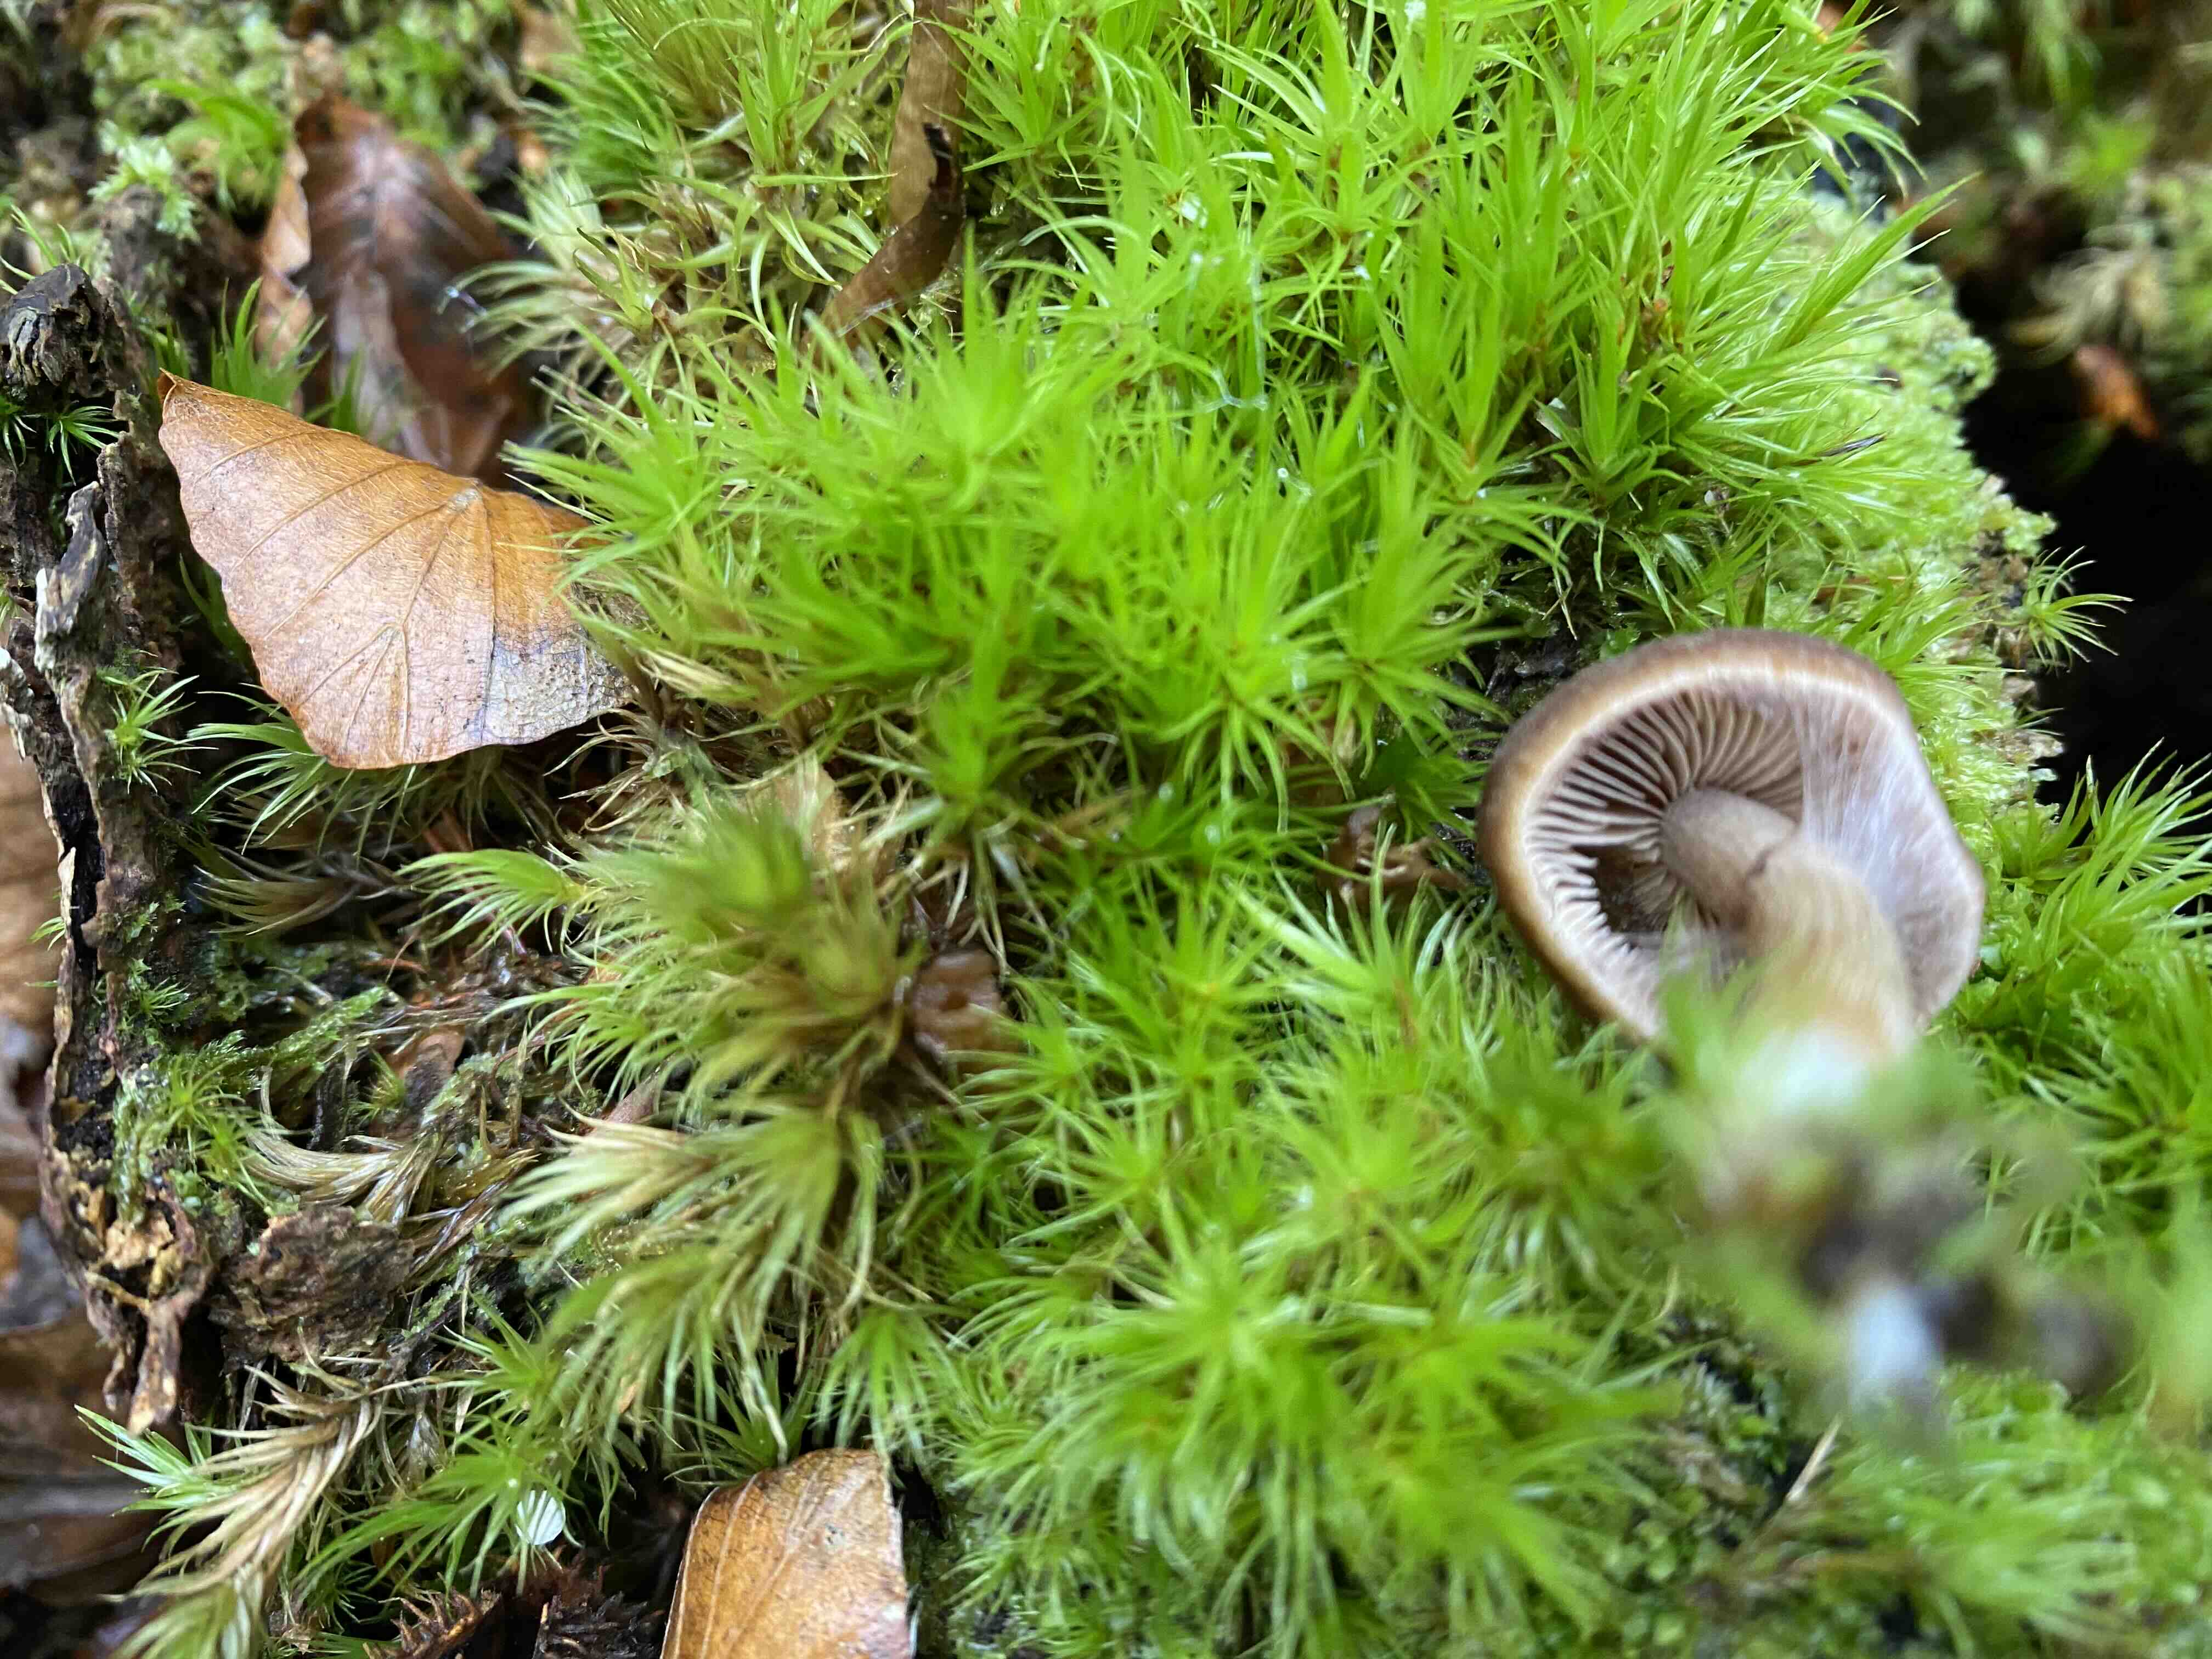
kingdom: Fungi
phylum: Basidiomycota
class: Agaricomycetes
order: Agaricales
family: Psathyrellaceae
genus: Psathyrella
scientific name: Psathyrella piluliformis
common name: lysstokket mørkhat
